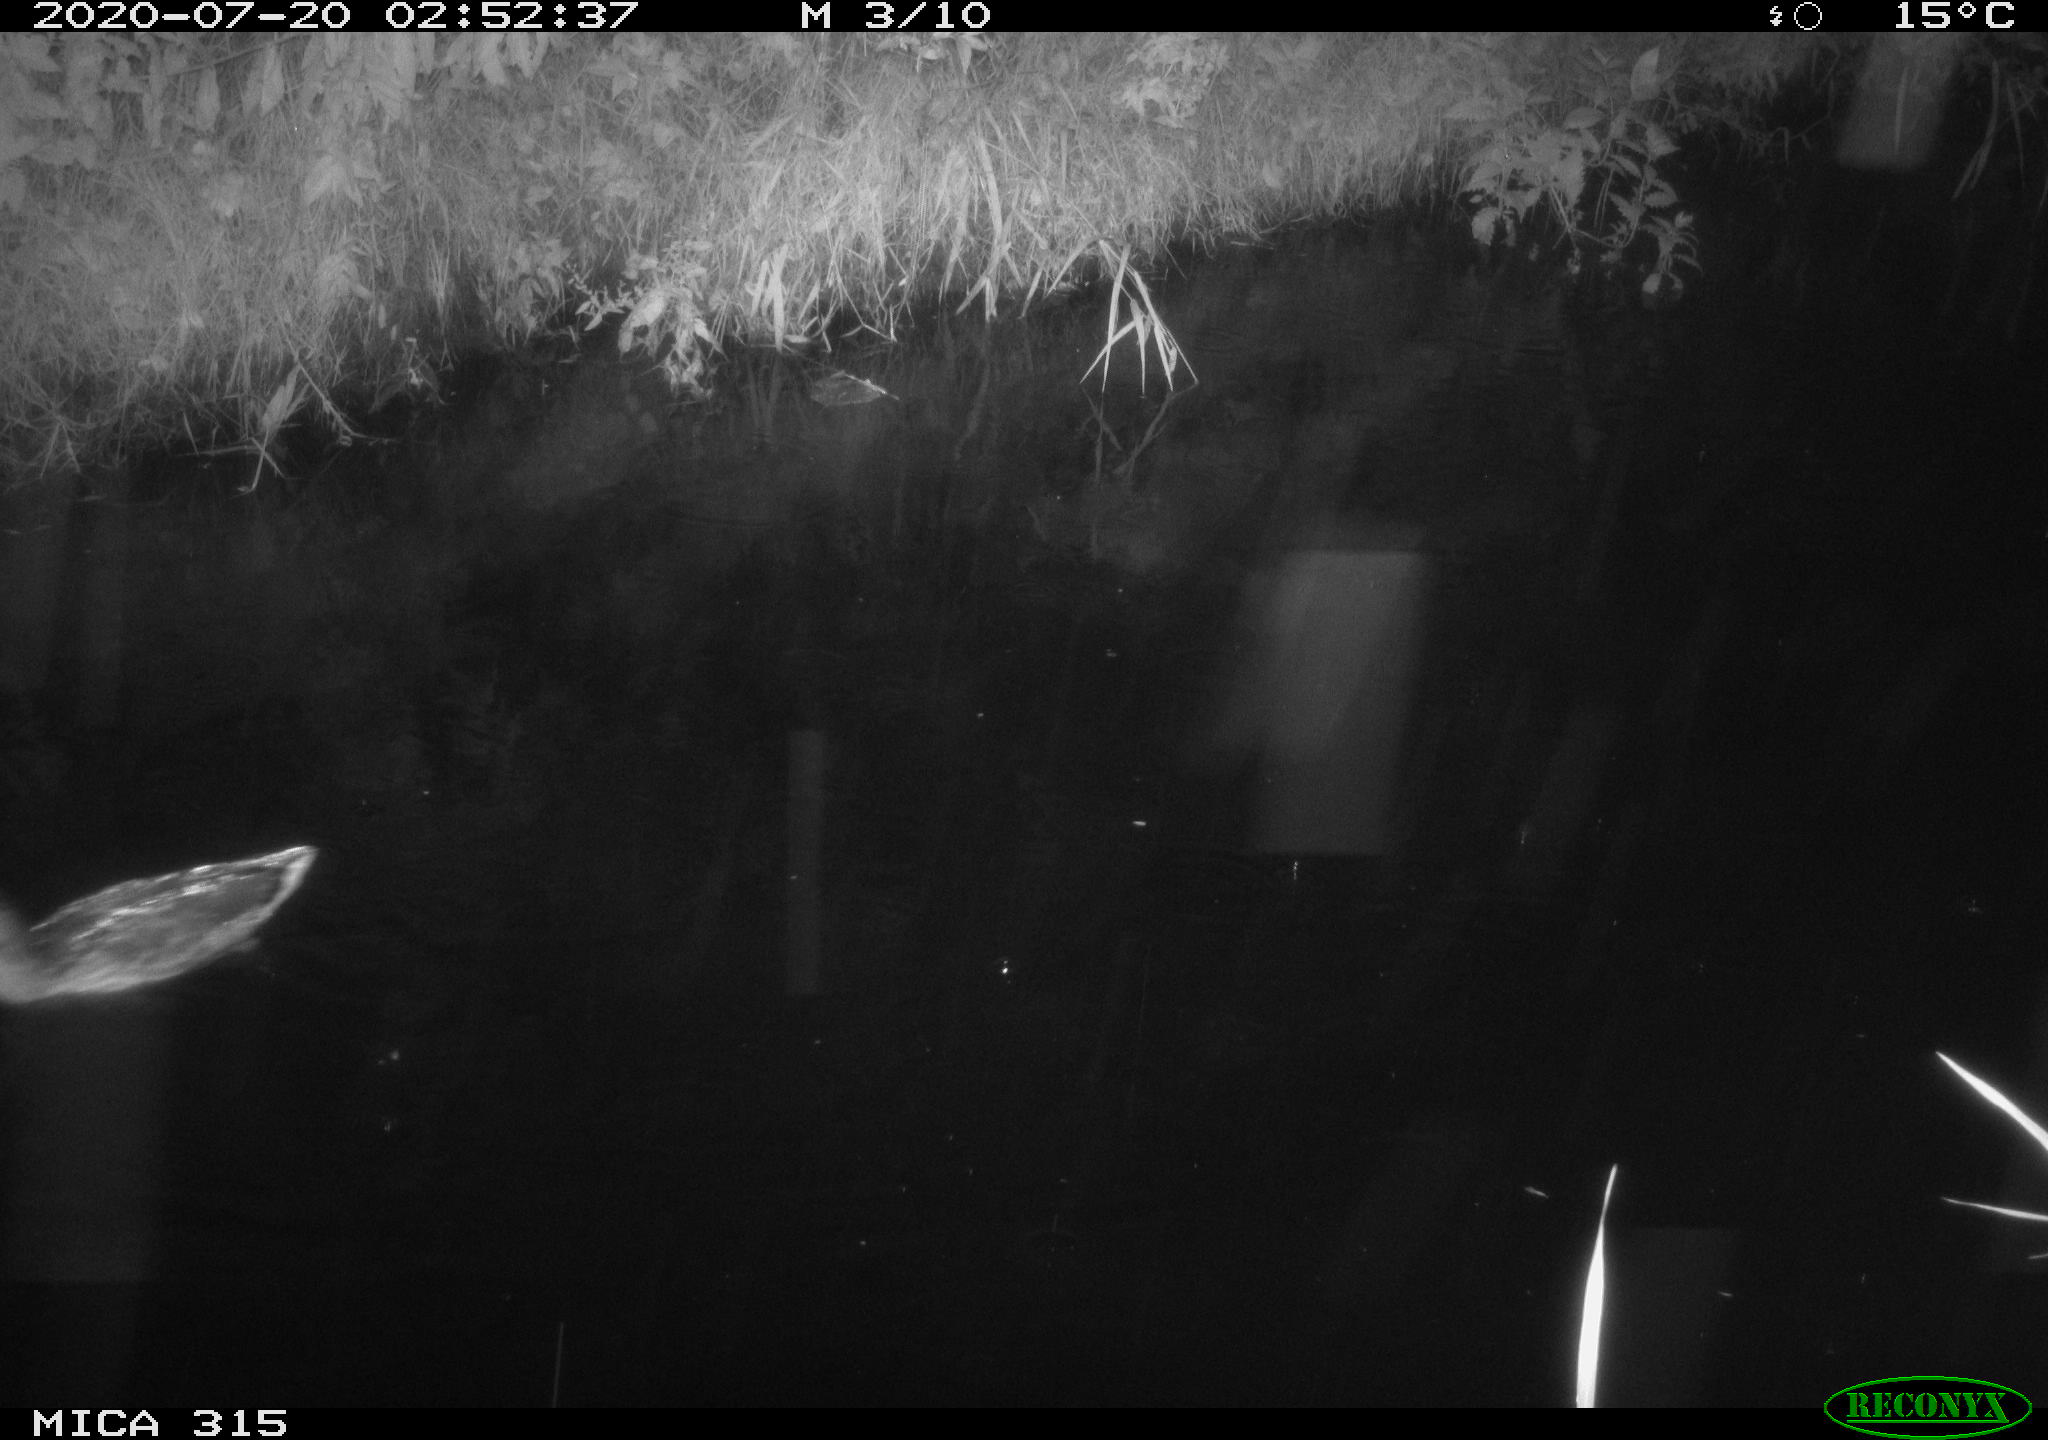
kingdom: Animalia
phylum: Chordata
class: Aves
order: Anseriformes
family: Anatidae
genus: Anas
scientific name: Anas platyrhynchos
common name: Mallard
